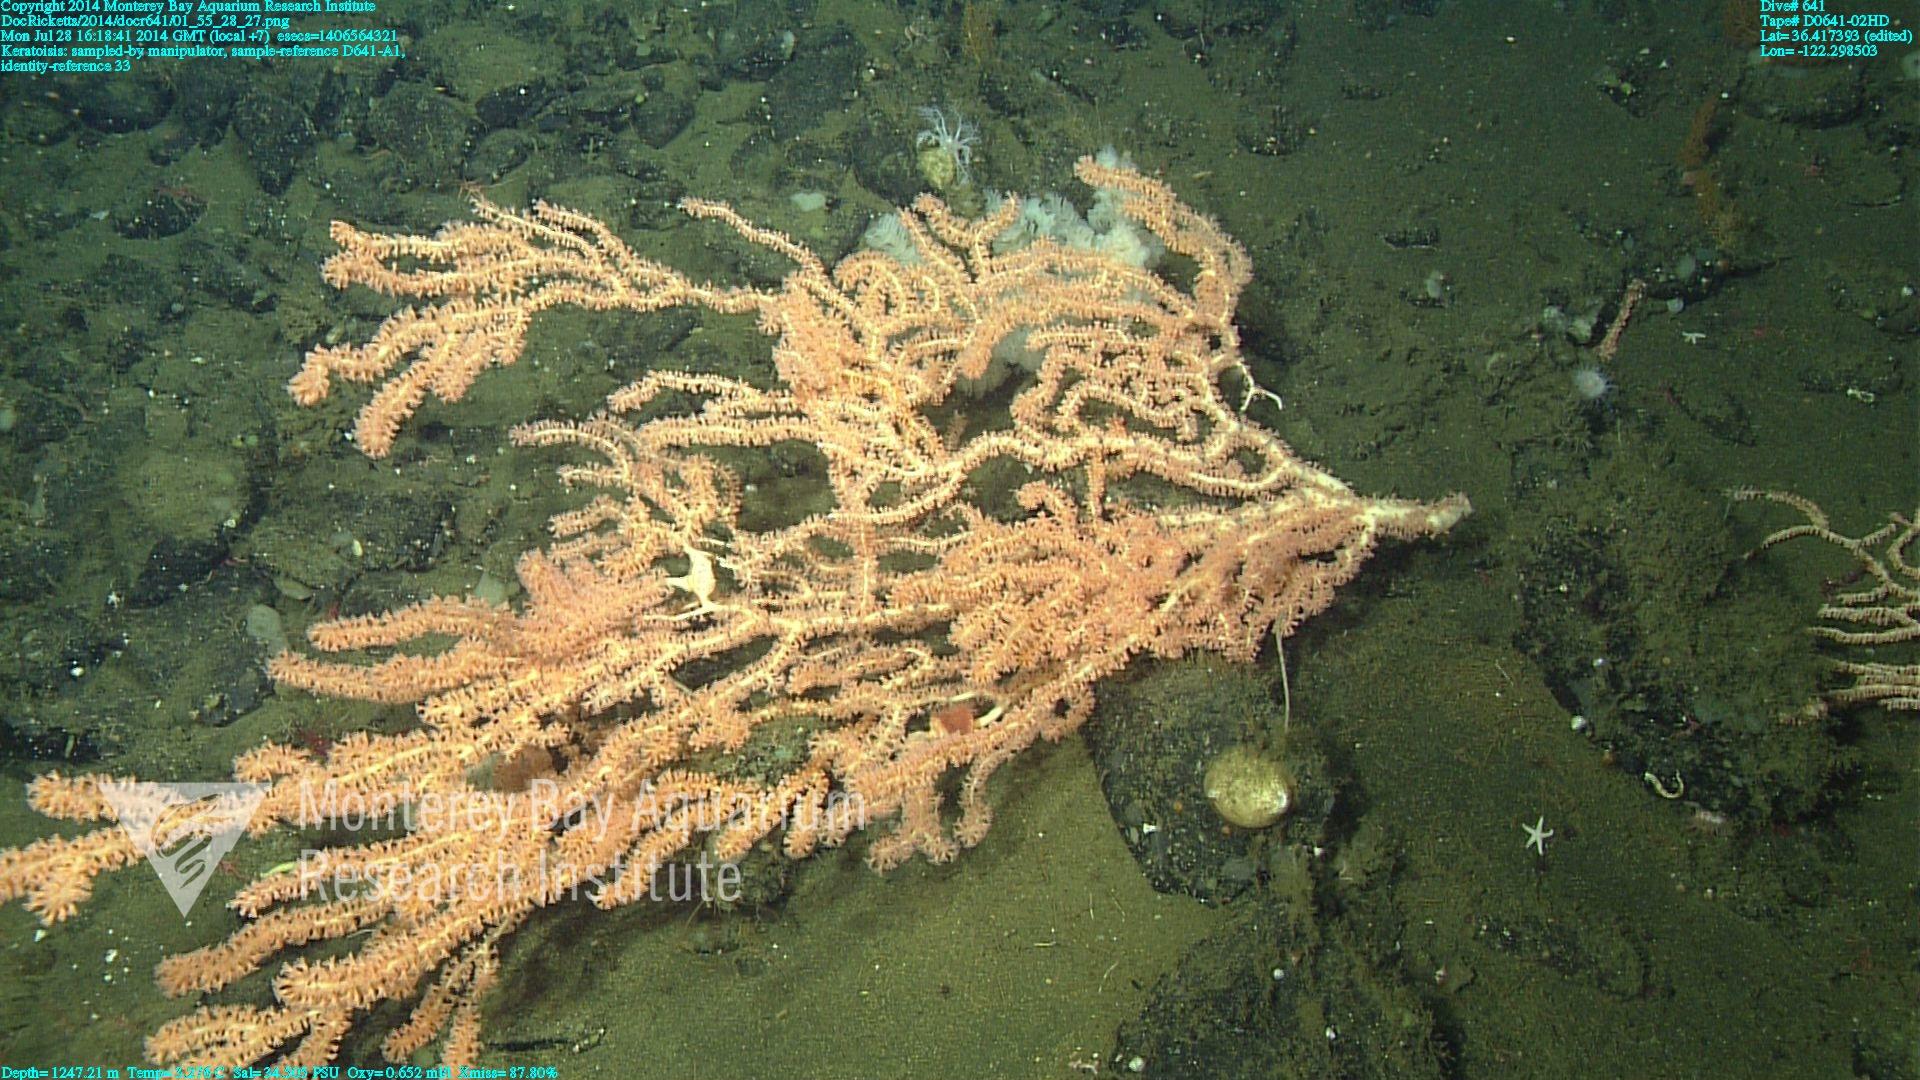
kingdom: Animalia
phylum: Cnidaria
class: Anthozoa
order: Scleralcyonacea
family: Keratoisididae
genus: Keratoisis
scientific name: Keratoisis
